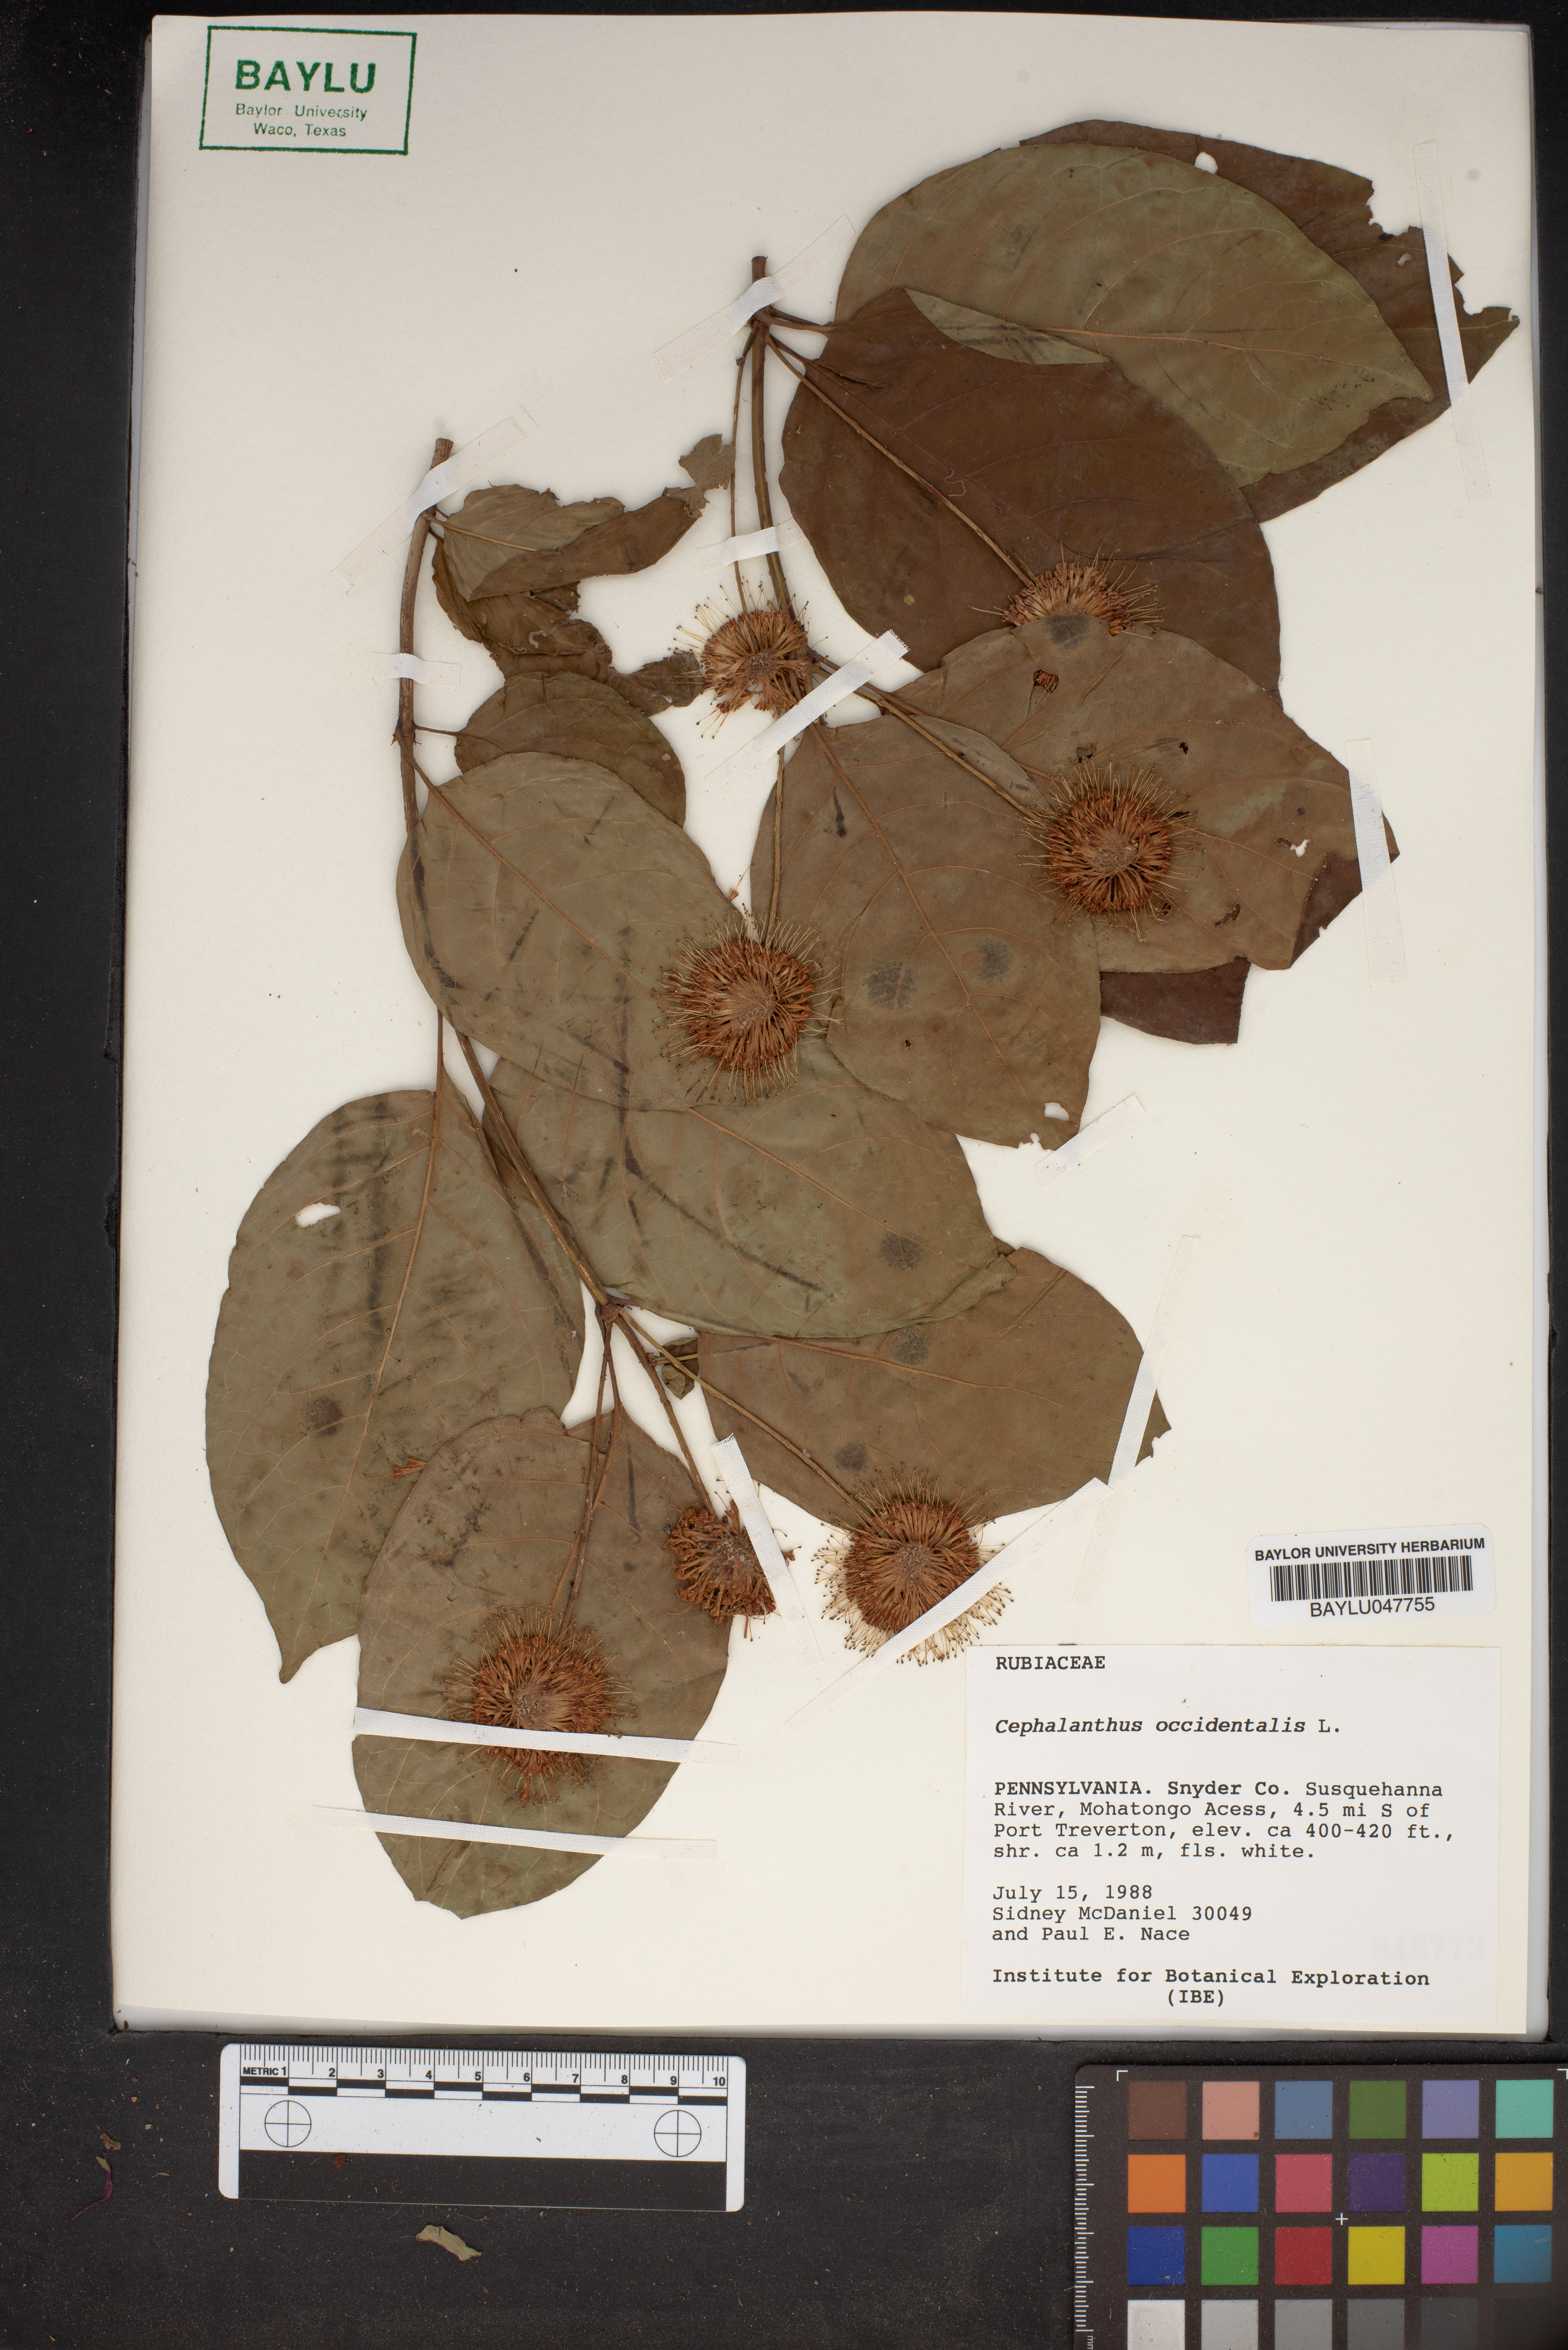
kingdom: Plantae
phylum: Tracheophyta
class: Magnoliopsida
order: Gentianales
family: Rubiaceae
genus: Cephalanthus
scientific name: Cephalanthus occidentalis
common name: Button-willow
